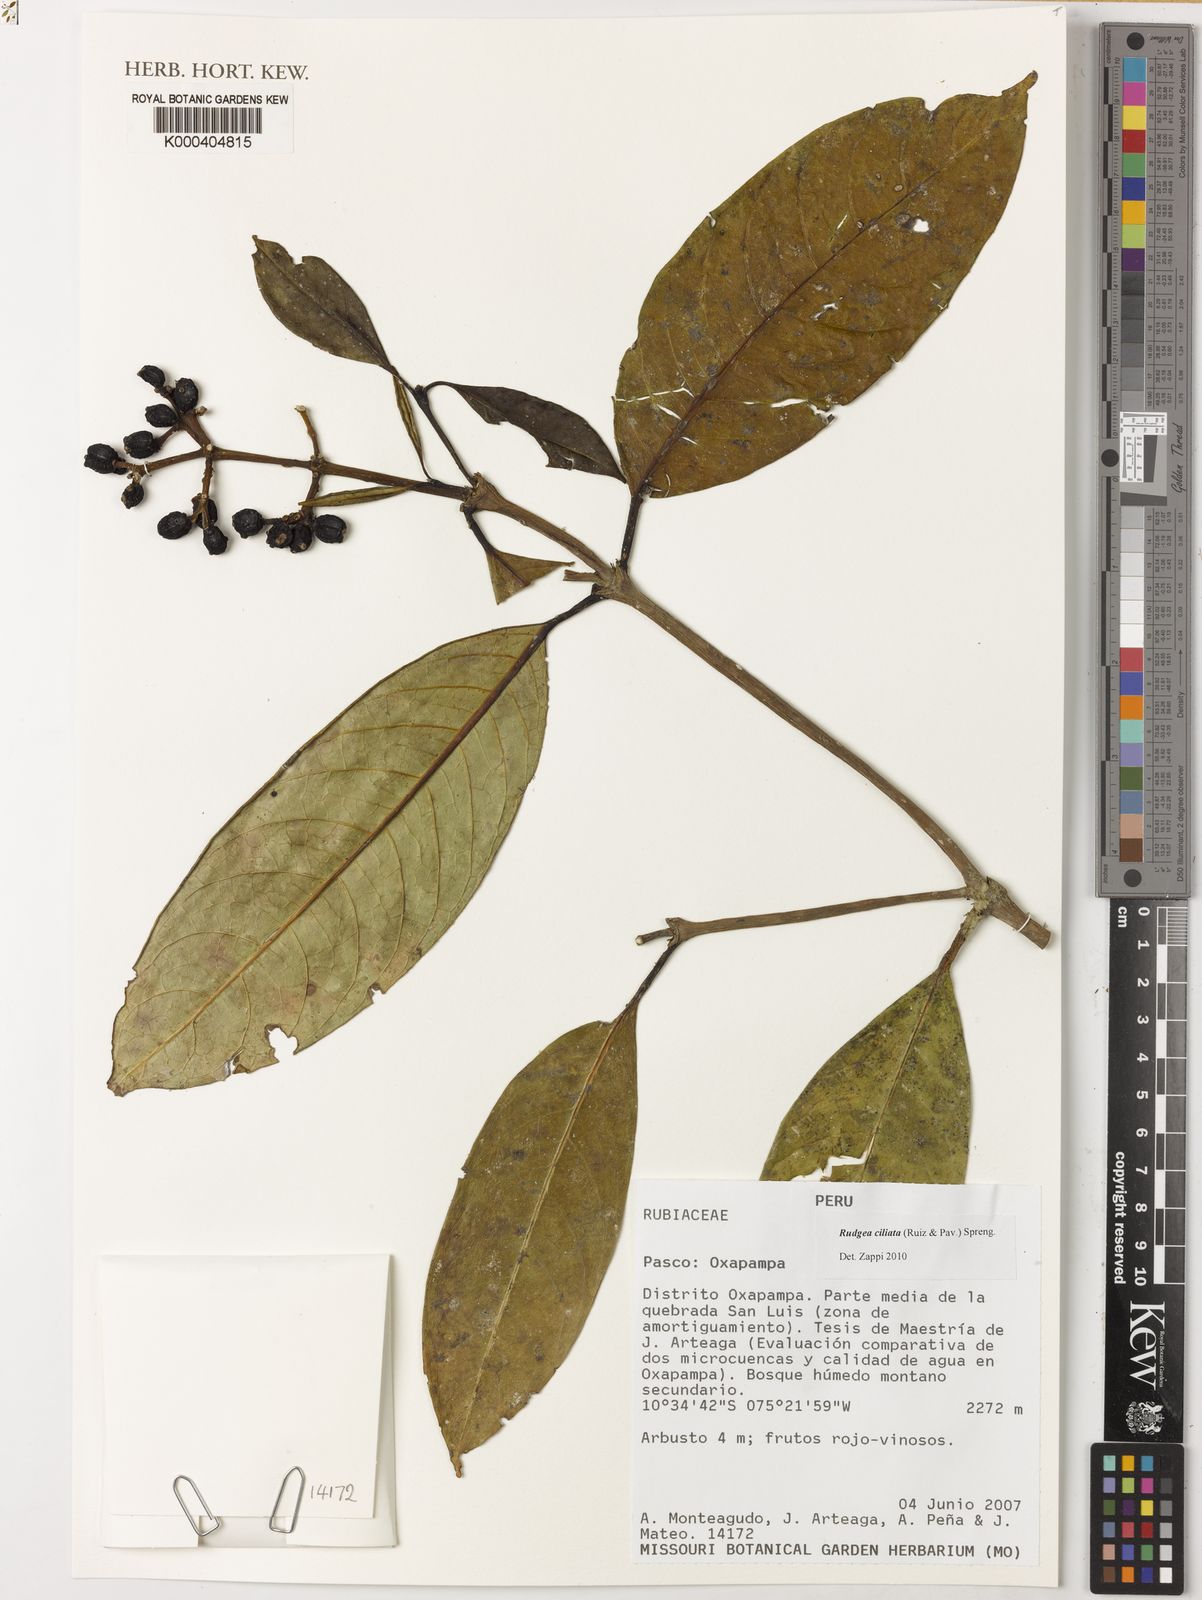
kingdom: Plantae
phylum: Tracheophyta
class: Magnoliopsida
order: Gentianales
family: Rubiaceae
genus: Rudgea
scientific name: Rudgea ciliata
